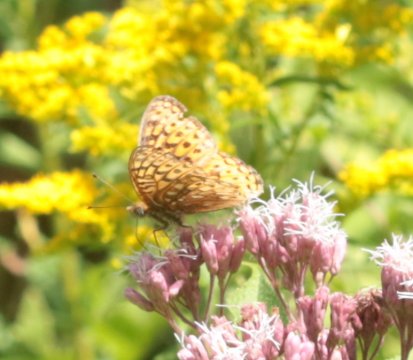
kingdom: Animalia
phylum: Arthropoda
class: Insecta
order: Lepidoptera
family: Nymphalidae
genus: Speyeria
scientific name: Speyeria atlantis
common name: Atlantis Fritillary
